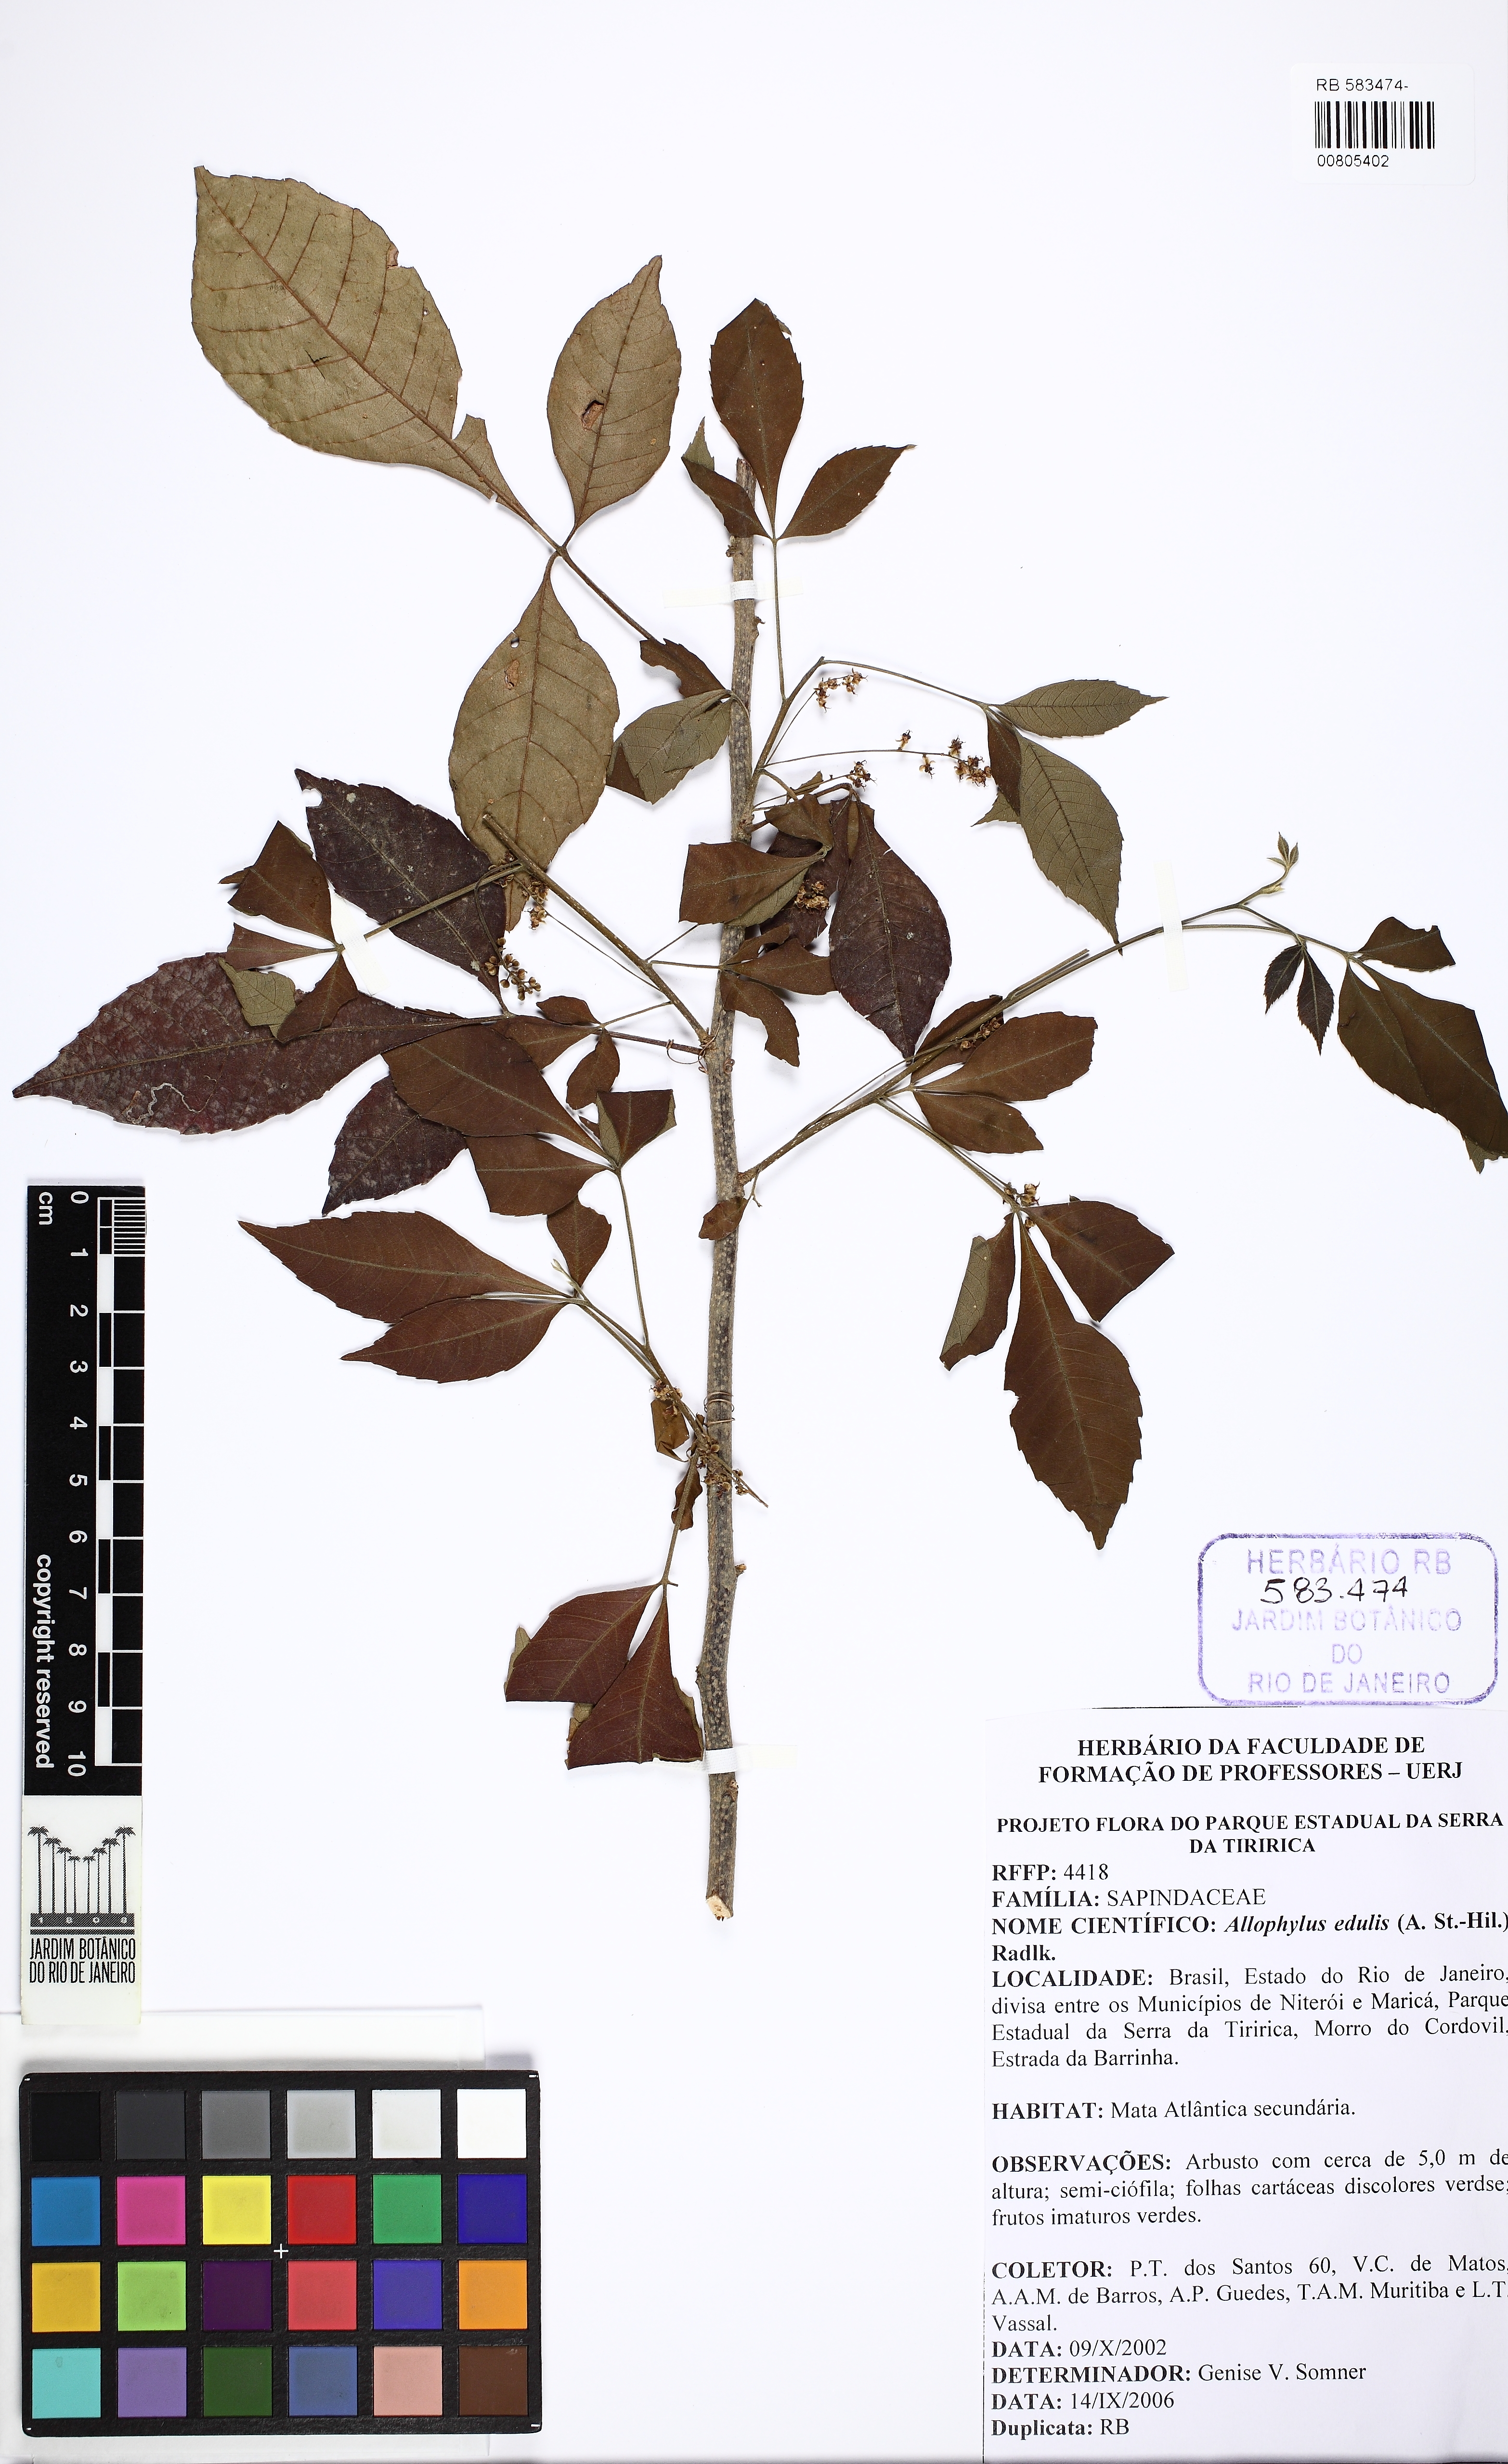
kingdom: Plantae
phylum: Tracheophyta
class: Magnoliopsida
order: Sapindales
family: Sapindaceae
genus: Allophylus
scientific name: Allophylus petiolulatus
